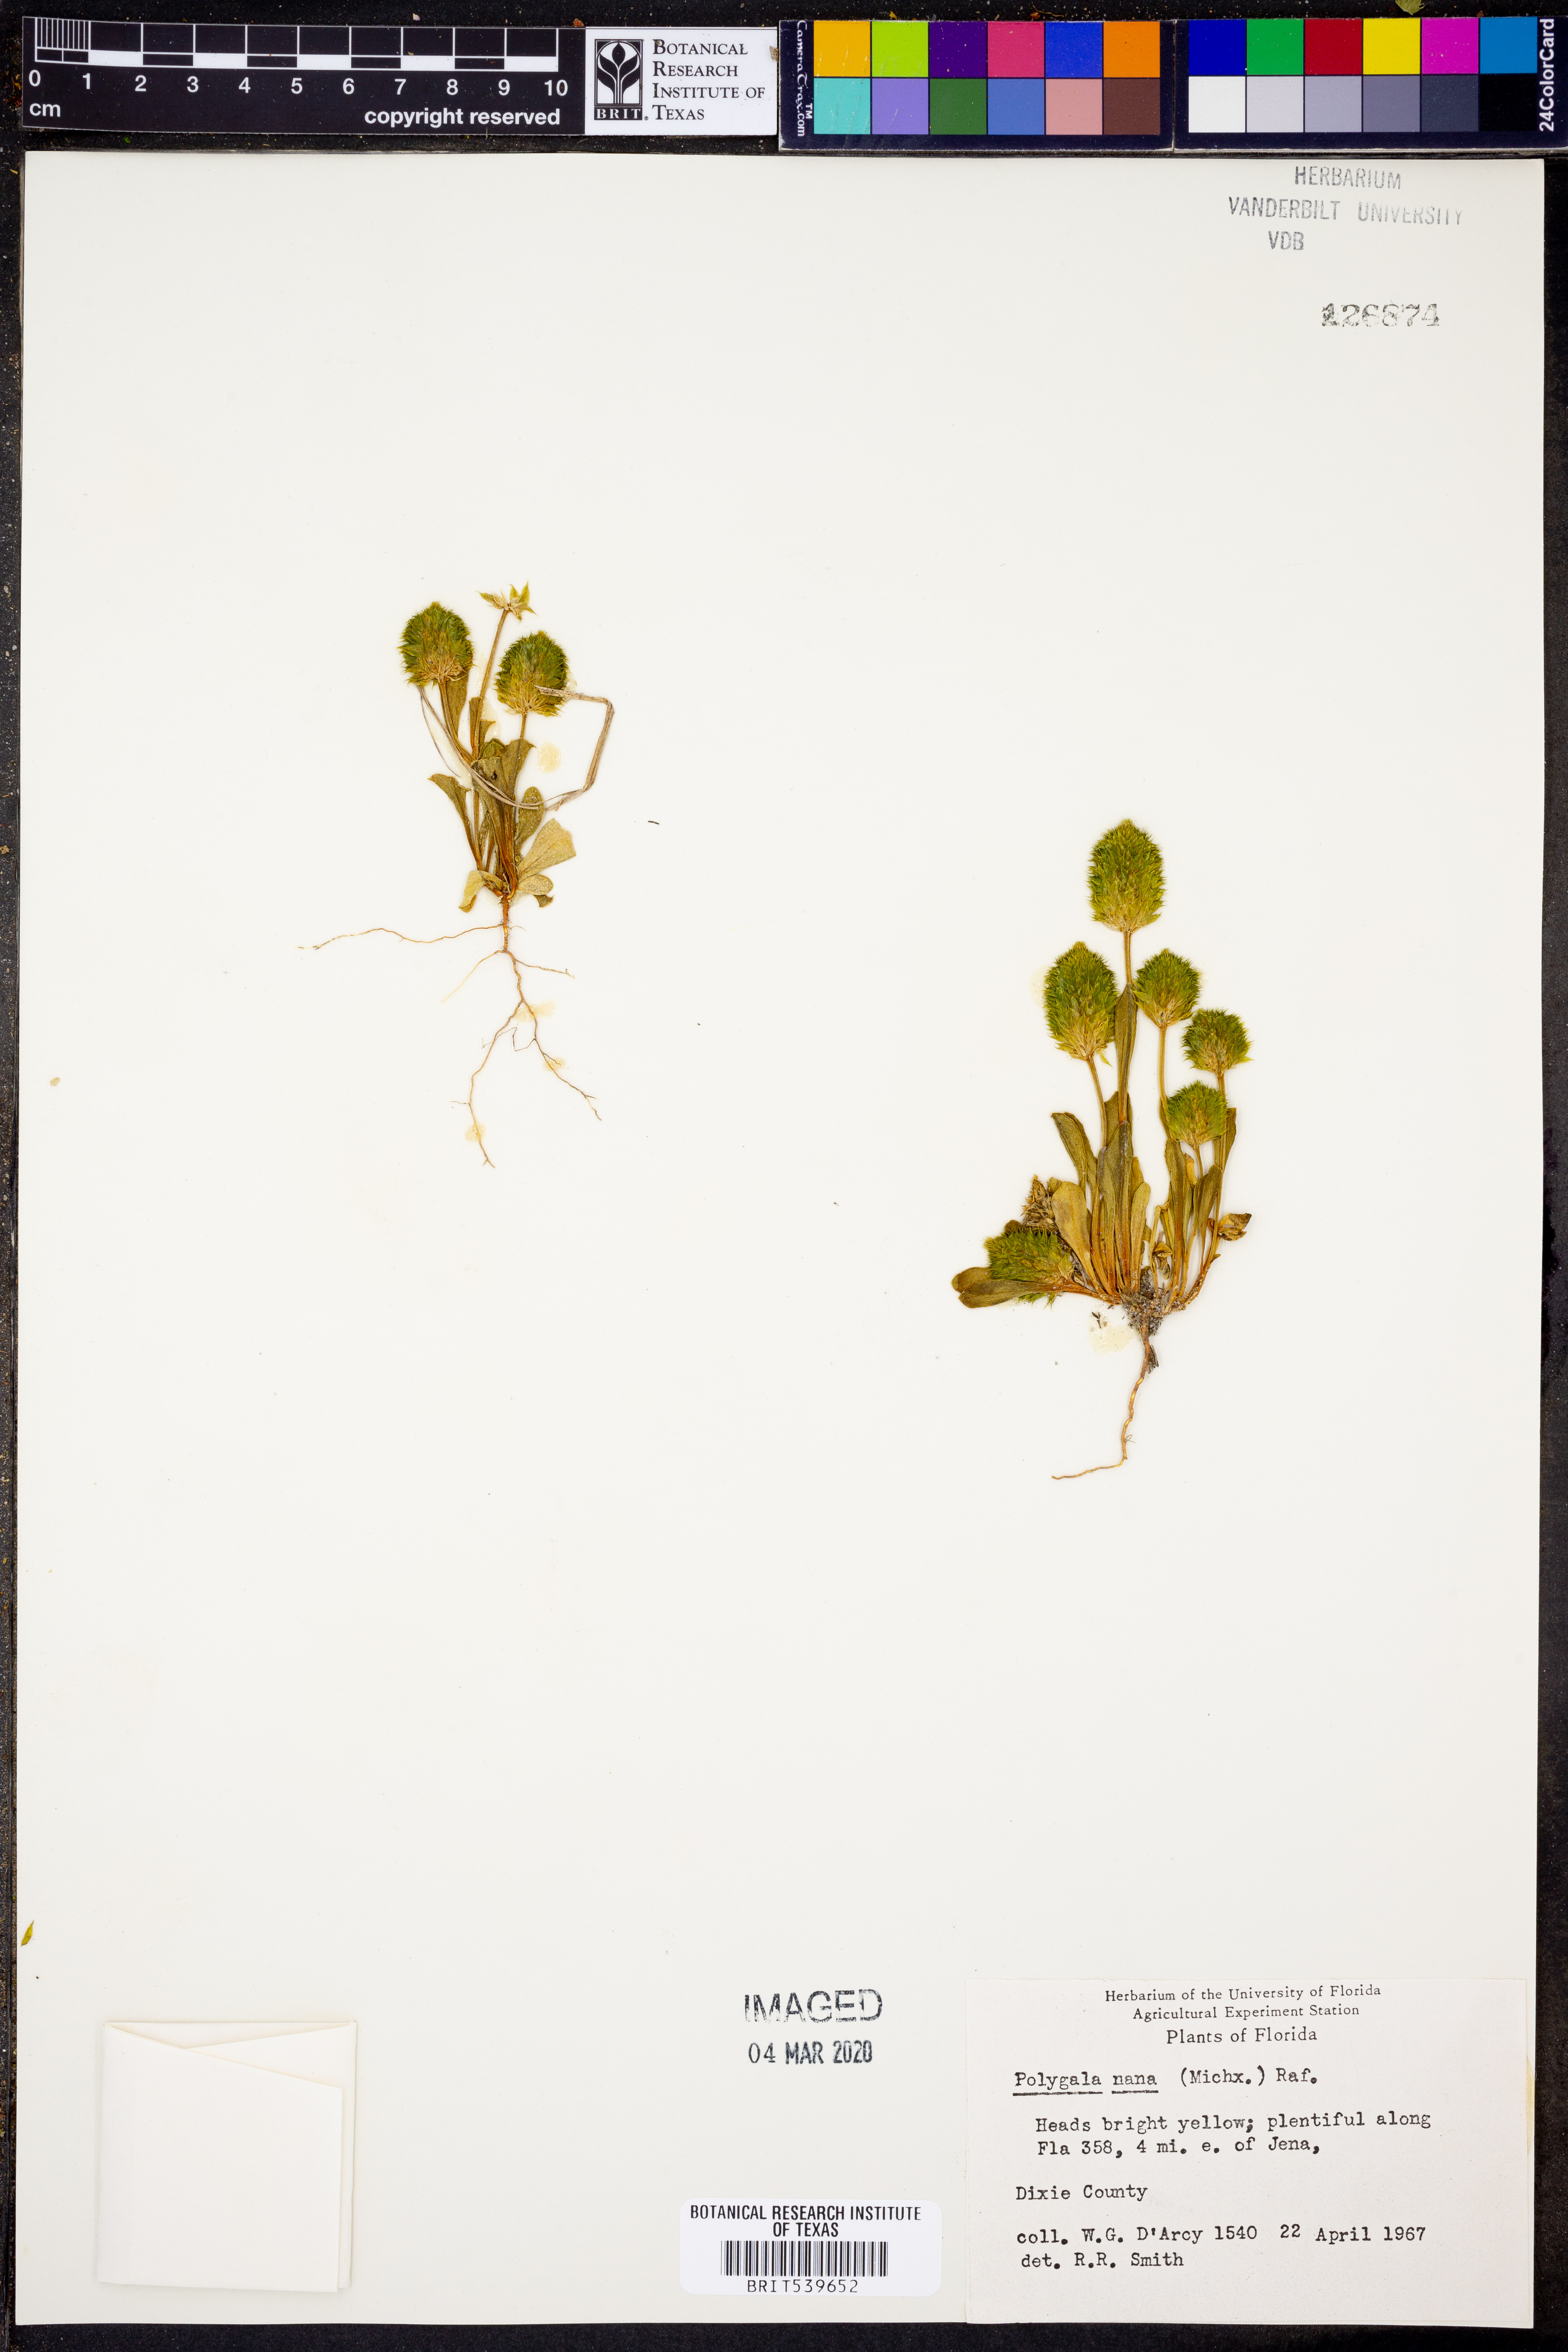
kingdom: Plantae
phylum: Tracheophyta
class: Magnoliopsida
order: Fabales
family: Polygalaceae
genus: Polygala
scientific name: Polygala nana
